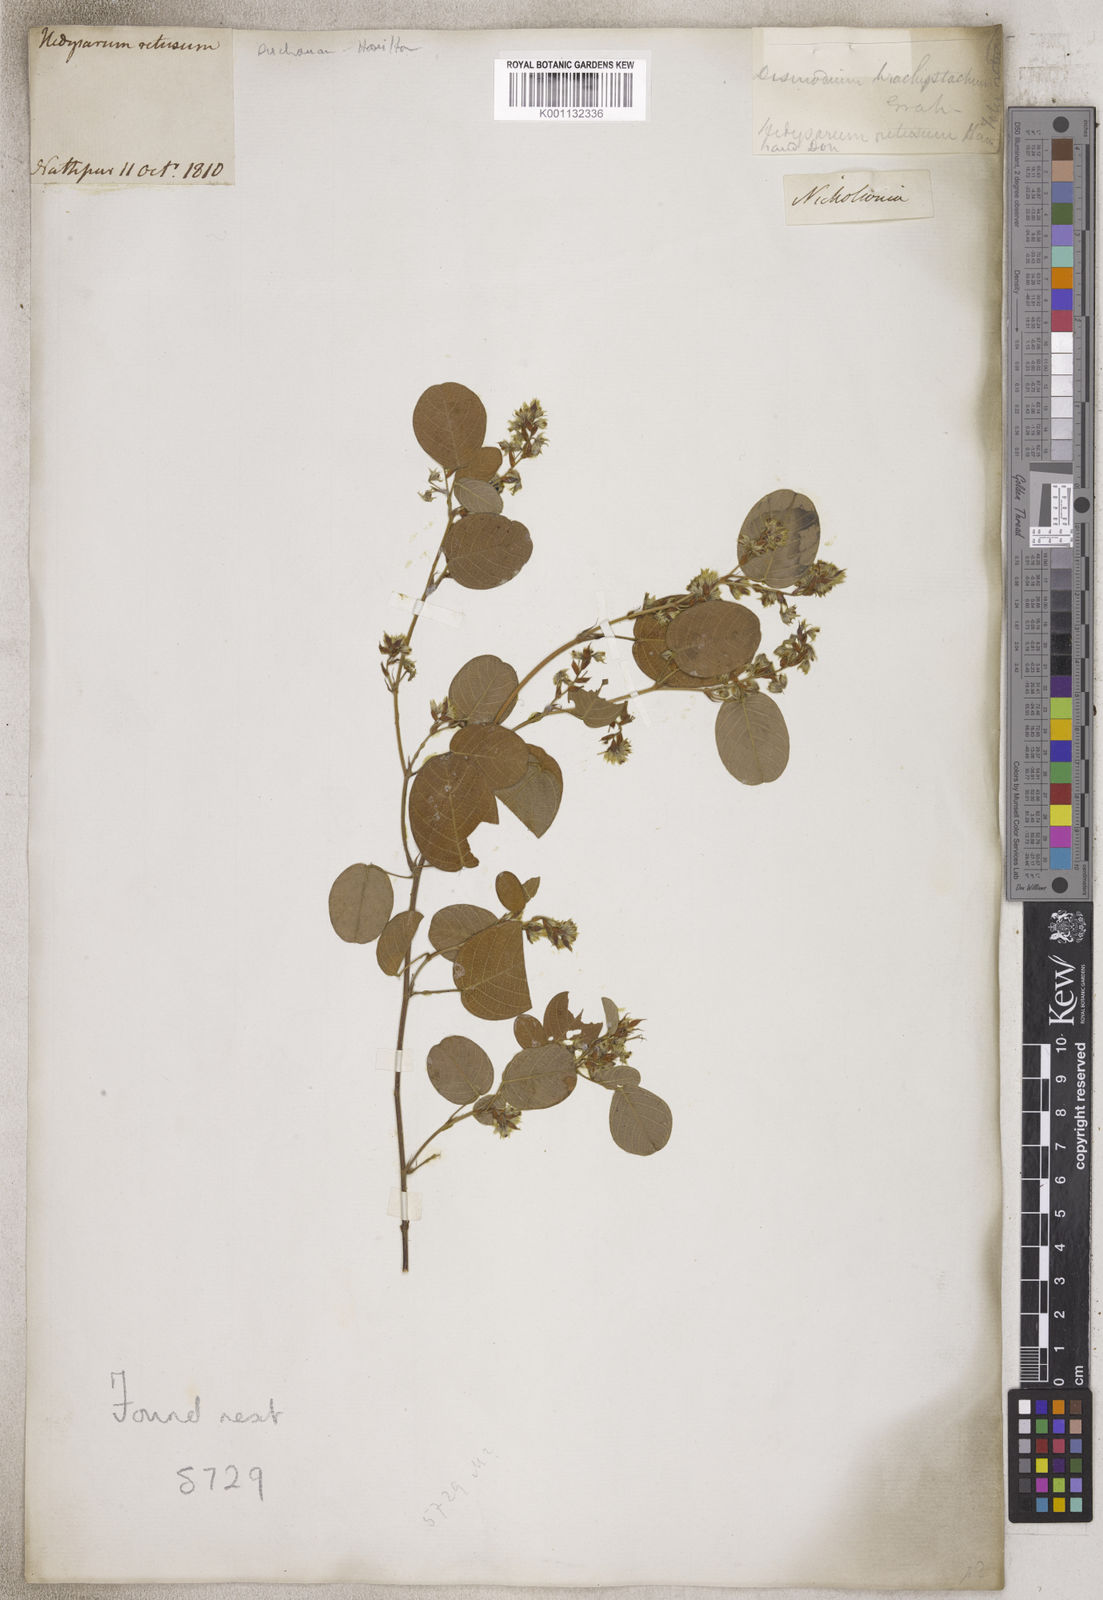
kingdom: Plantae
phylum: Tracheophyta
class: Magnoliopsida
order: Fabales
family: Fabaceae
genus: Desmodium
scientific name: Desmodium
